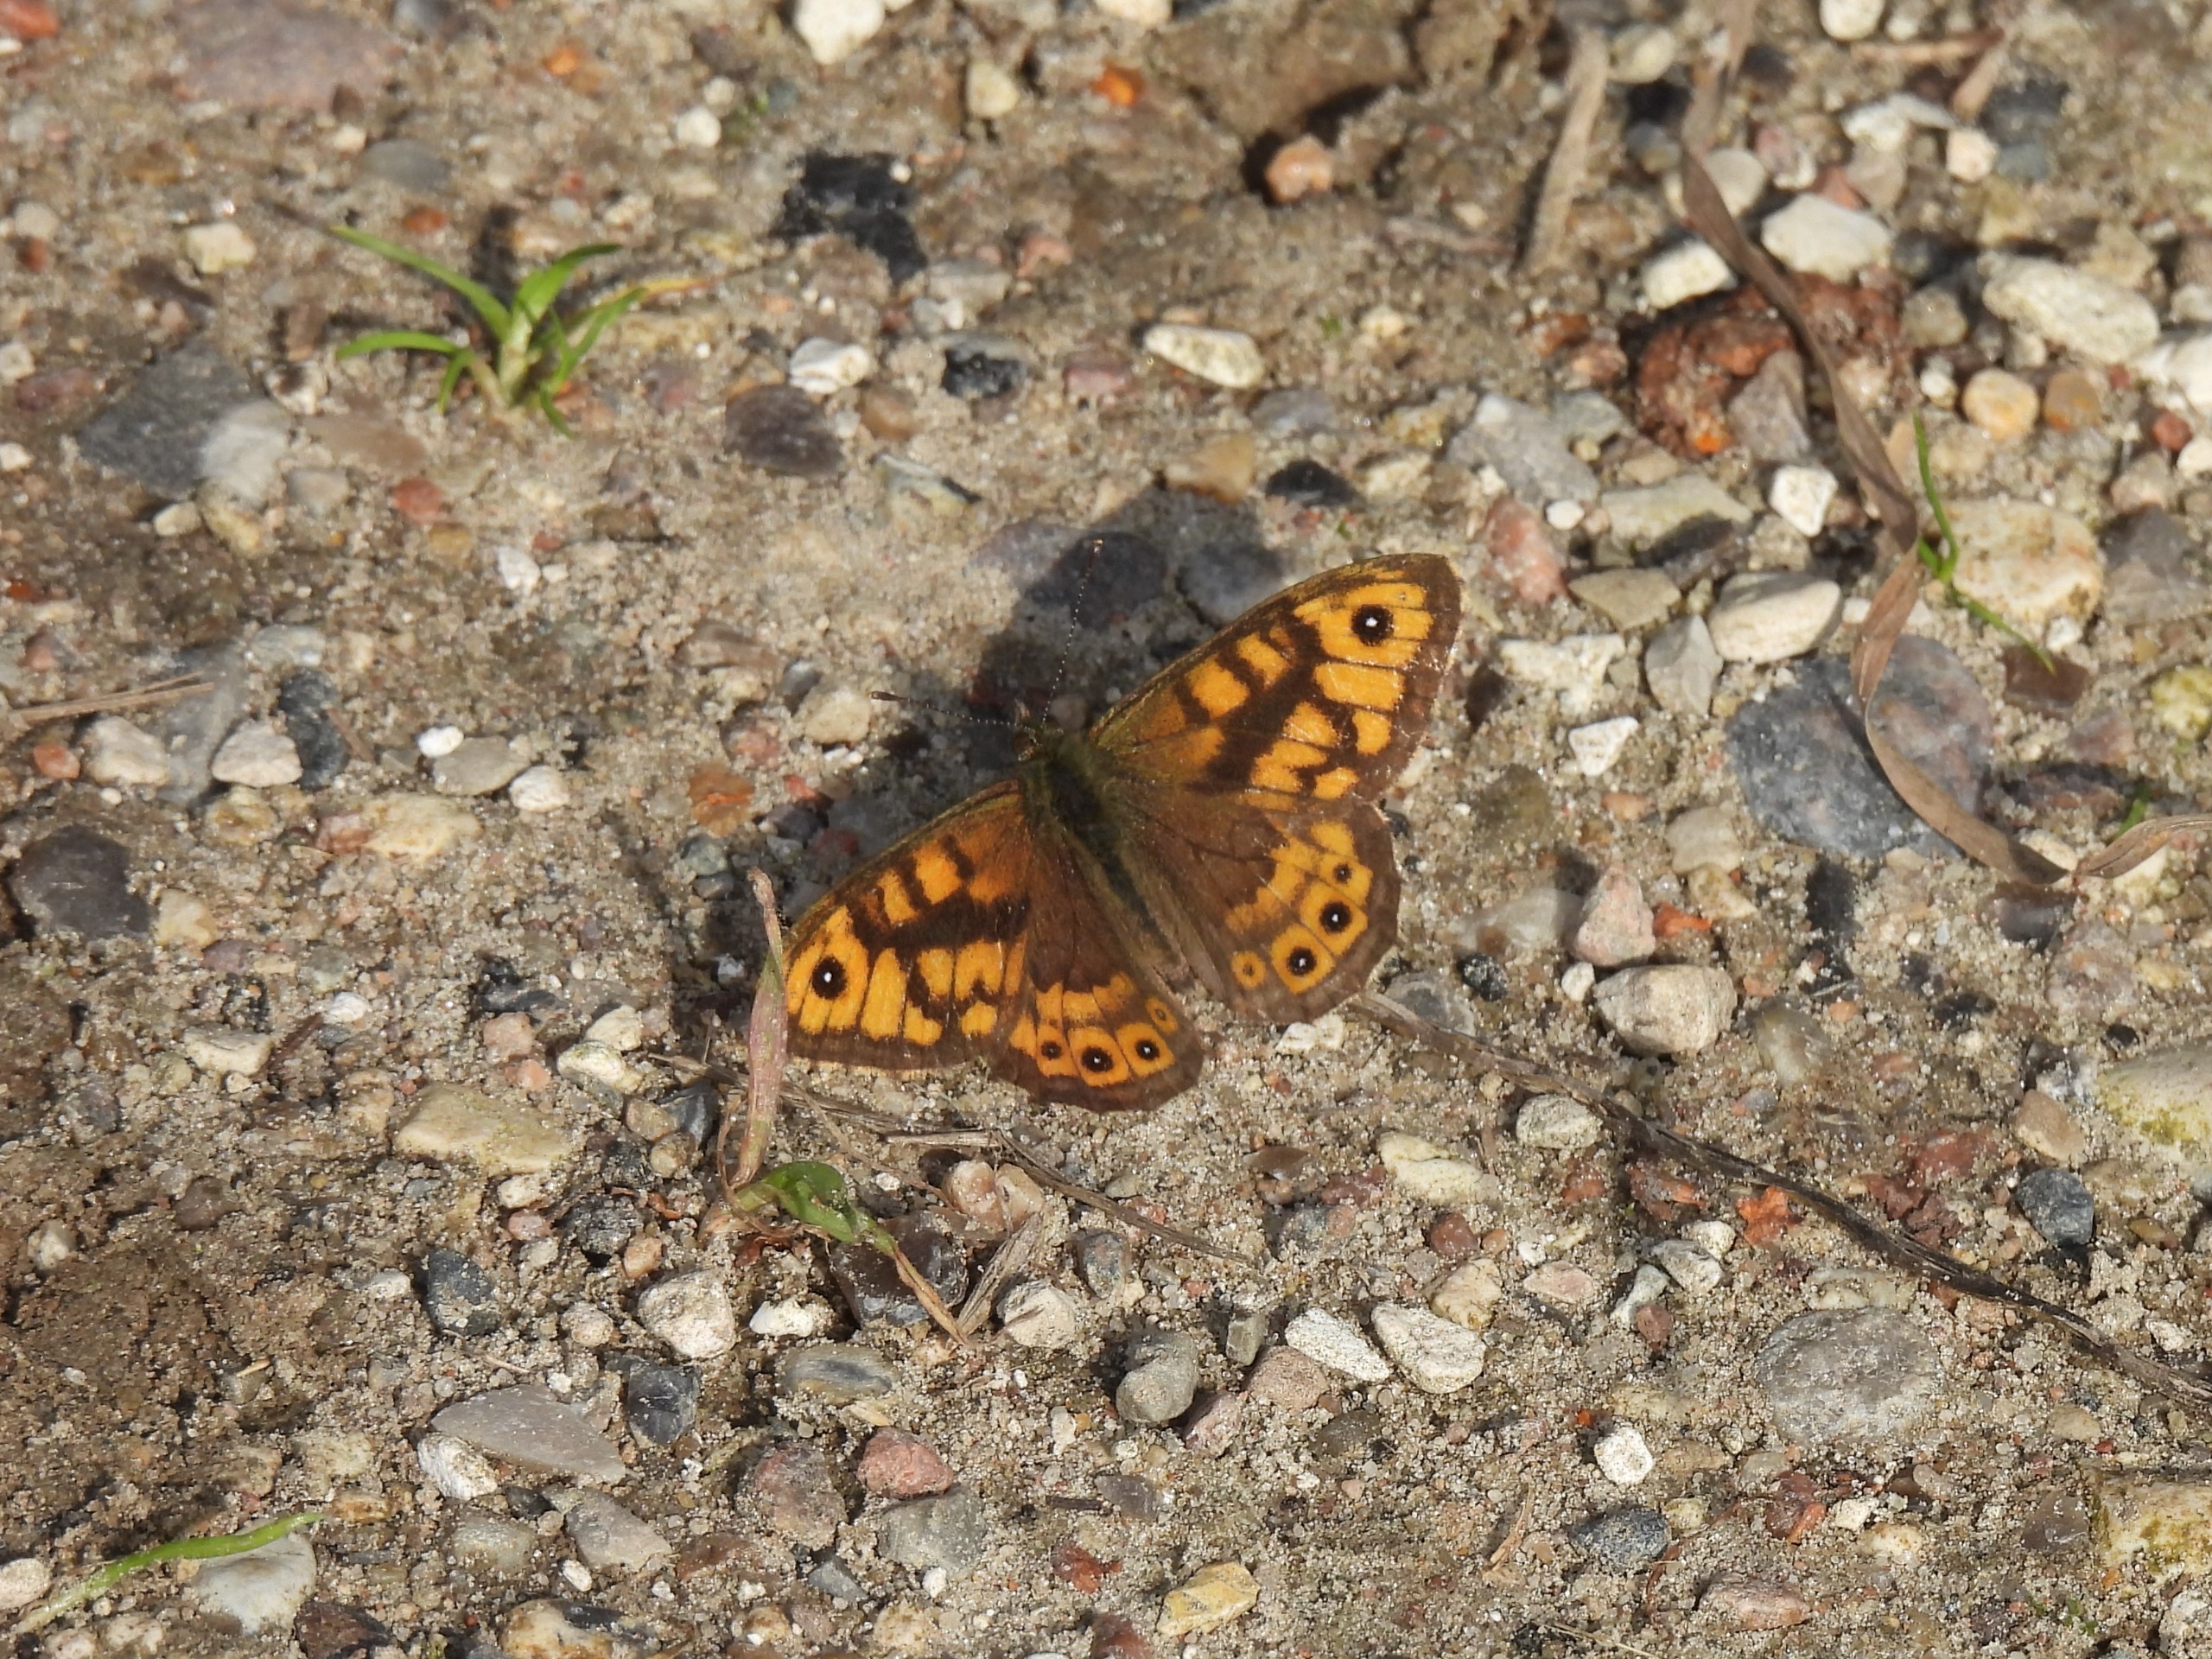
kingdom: Animalia
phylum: Arthropoda
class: Insecta
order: Lepidoptera
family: Nymphalidae
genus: Pararge
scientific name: Pararge Lasiommata megera
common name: Vejrandøje
